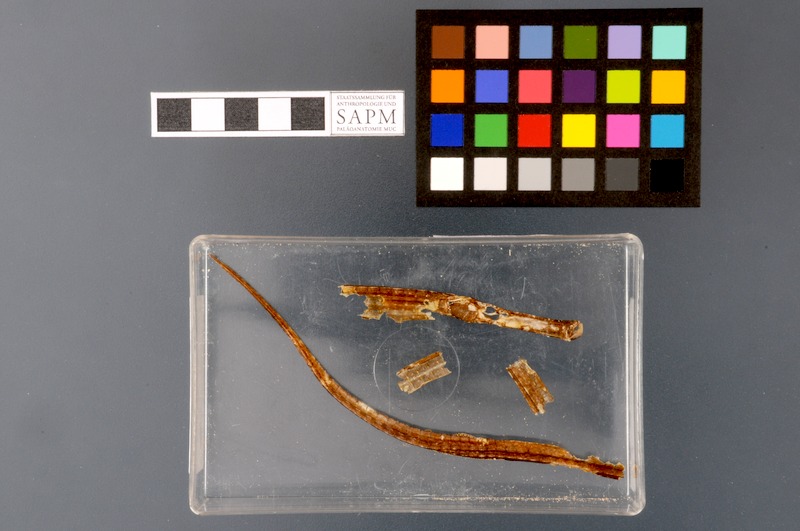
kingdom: Animalia
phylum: Chordata
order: Syngnathiformes
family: Syngnathidae
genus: Syngnathus
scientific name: Syngnathus typhle
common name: Deep-snouted pipefish
